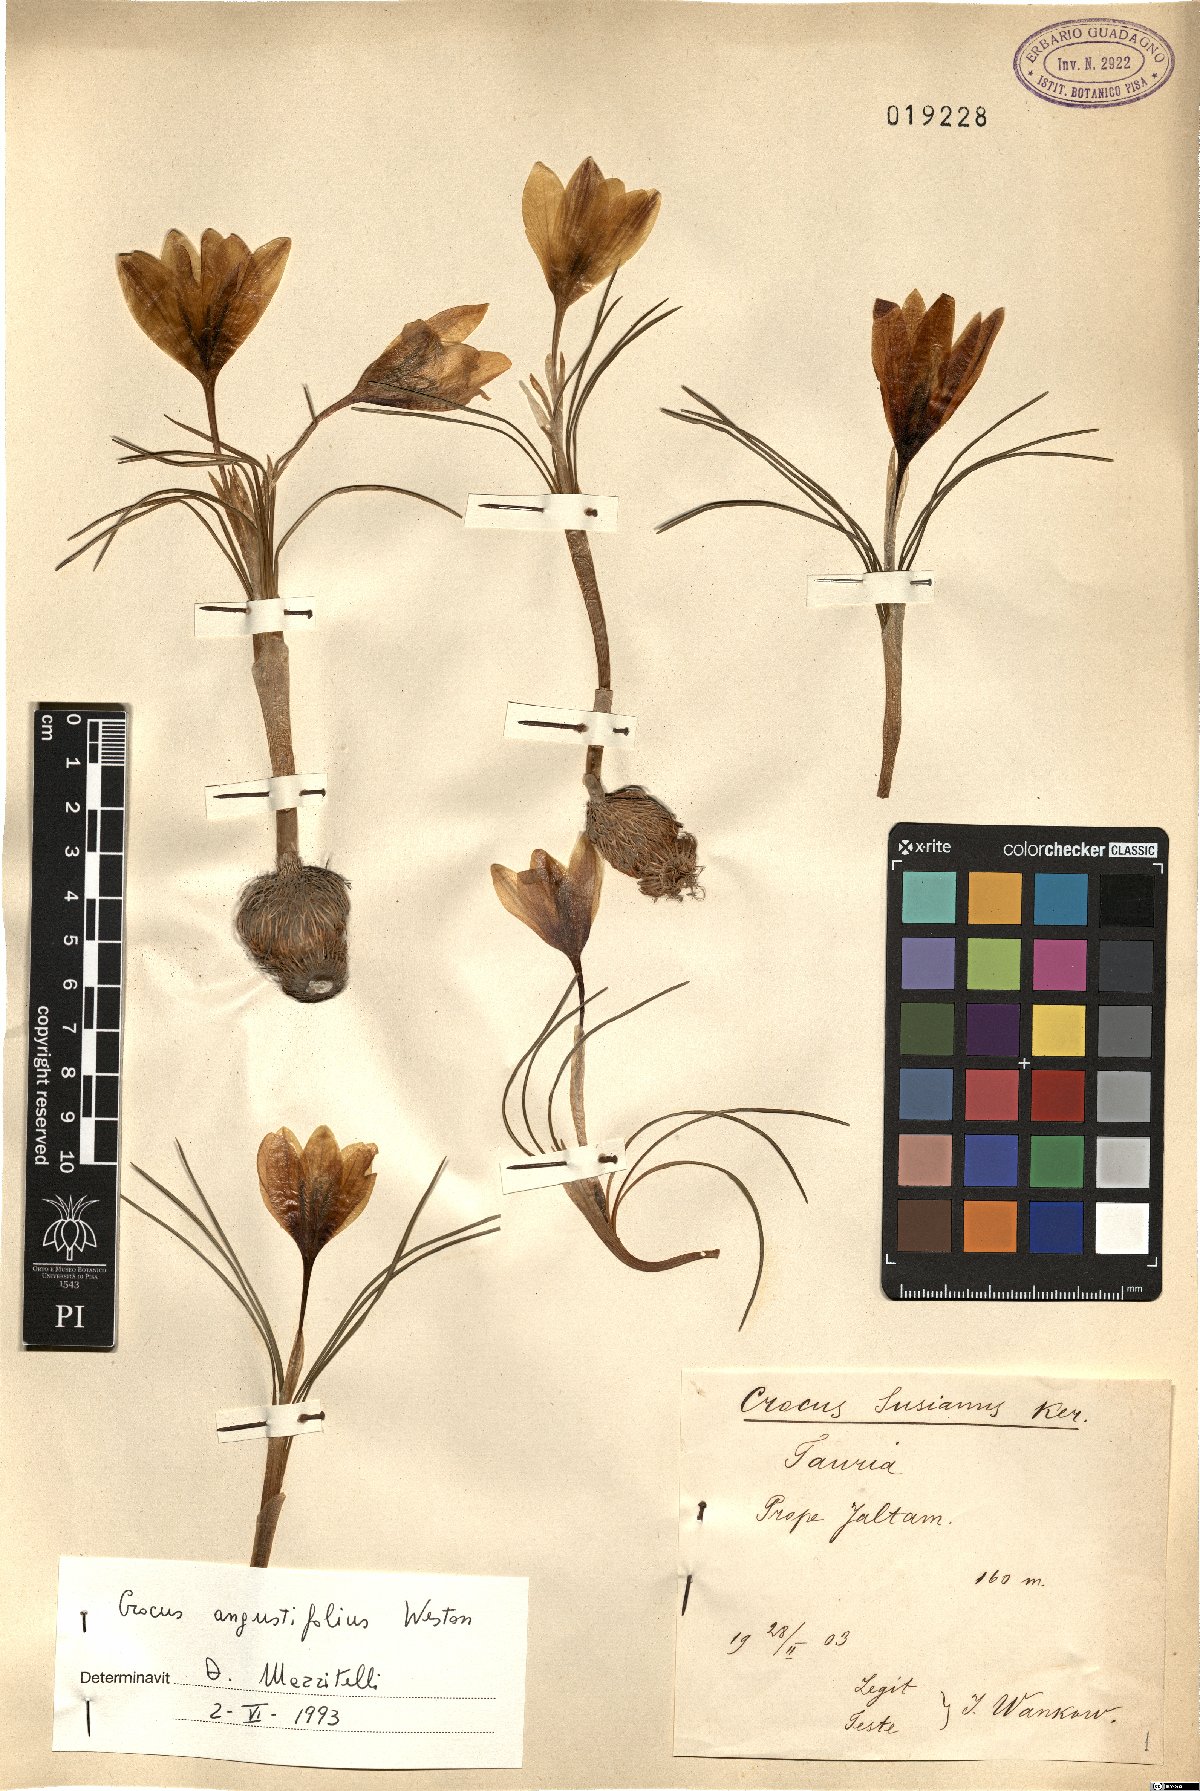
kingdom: Plantae
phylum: Tracheophyta
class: Liliopsida
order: Asparagales
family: Iridaceae
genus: Crocus
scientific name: Crocus angustifolius
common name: Cloth of gold
